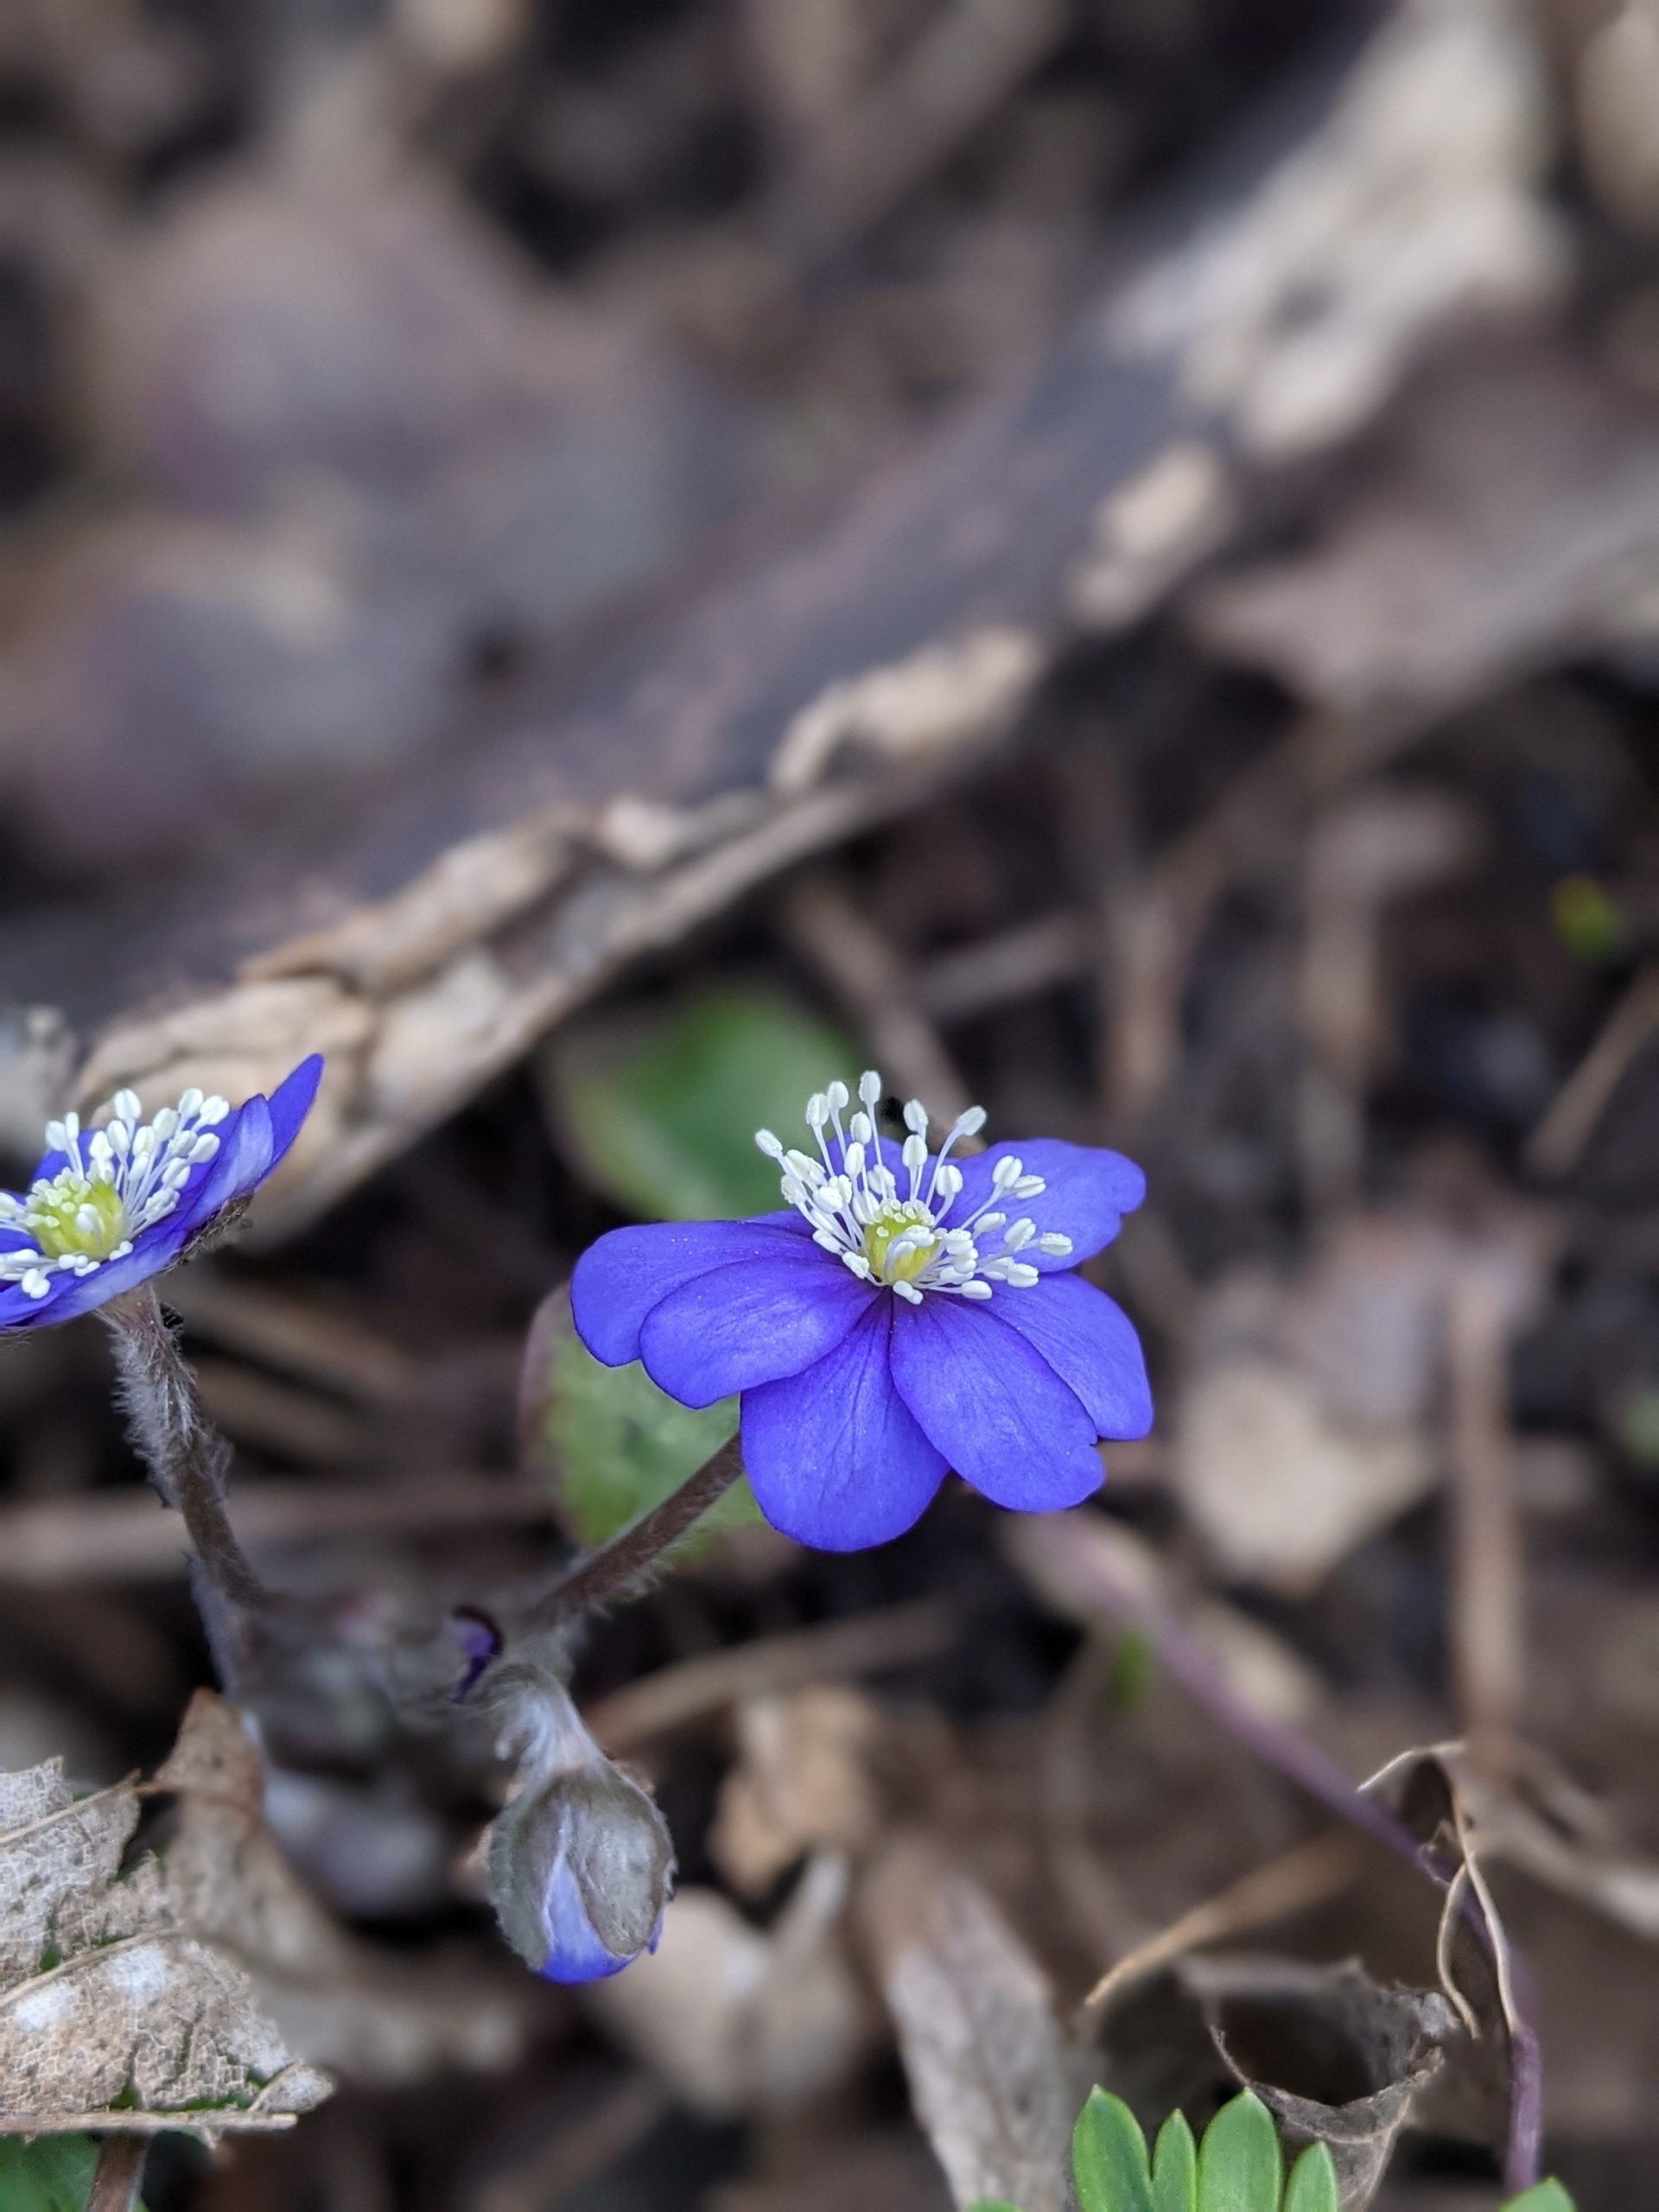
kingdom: Plantae
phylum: Tracheophyta
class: Magnoliopsida
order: Ranunculales
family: Ranunculaceae
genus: Hepatica
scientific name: Hepatica nobilis
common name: Blå anemone
